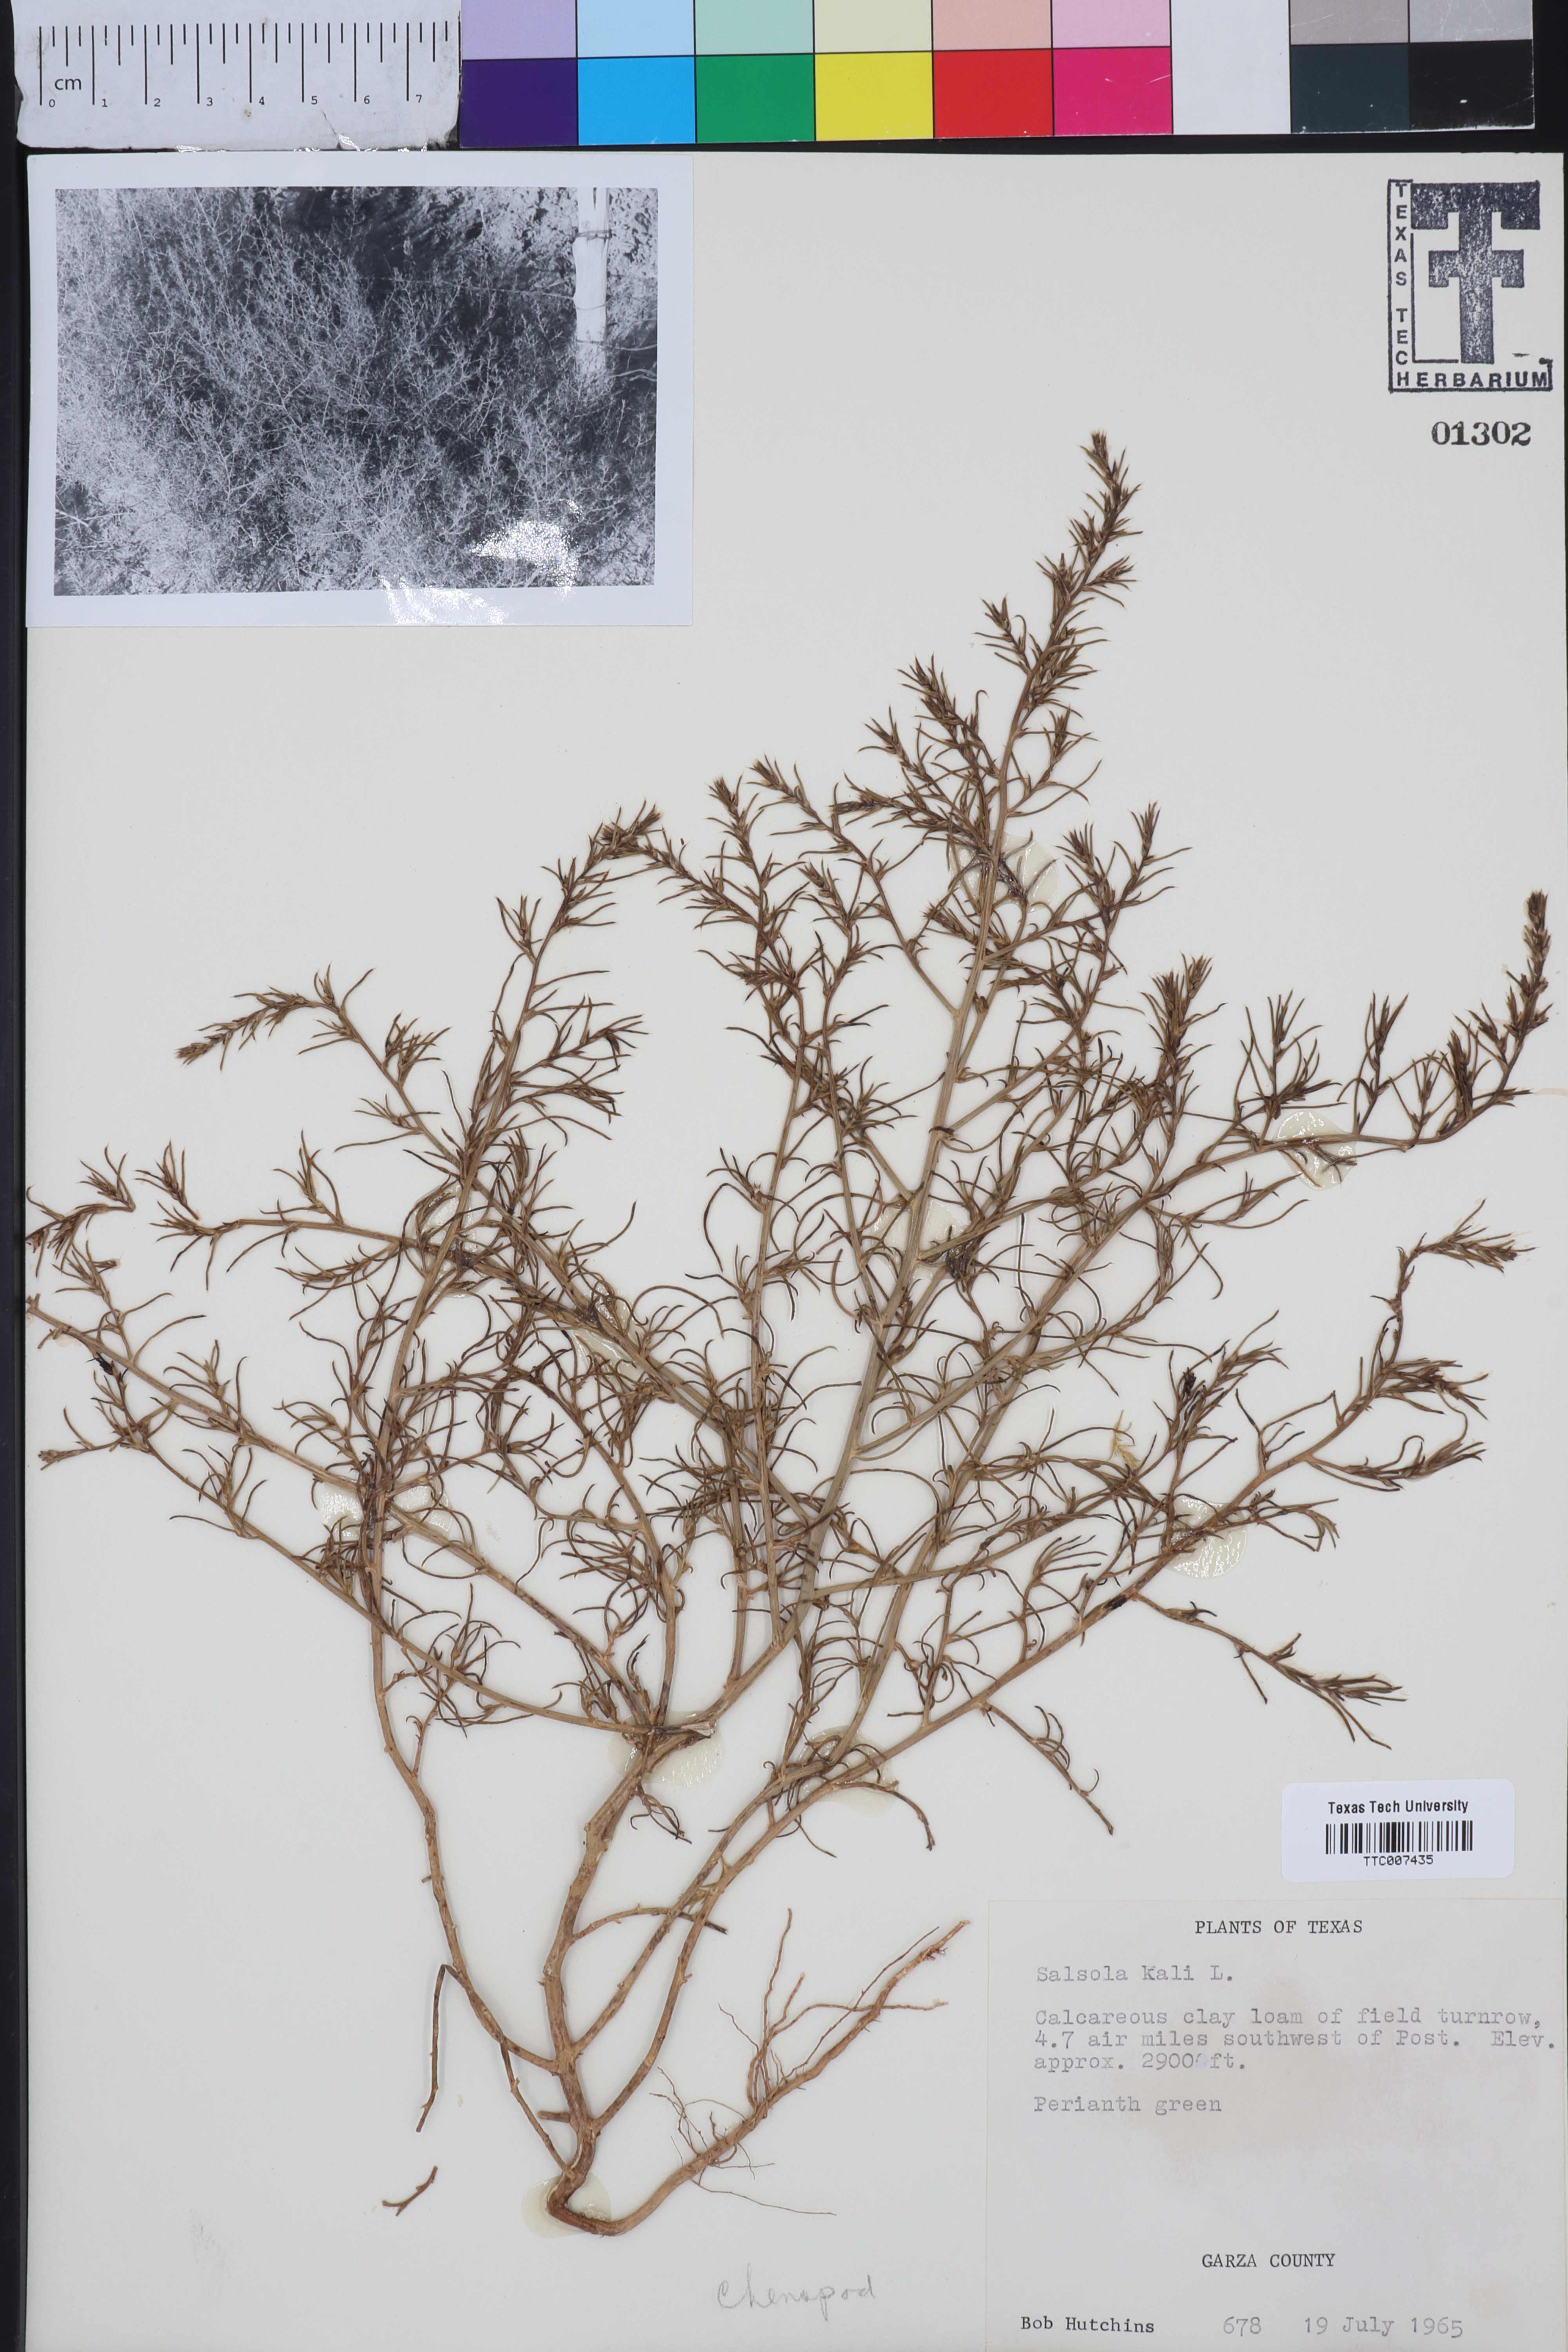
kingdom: Plantae
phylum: Tracheophyta
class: Magnoliopsida
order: Caryophyllales
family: Amaranthaceae
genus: Salsola
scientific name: Salsola kali
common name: Saltwort
